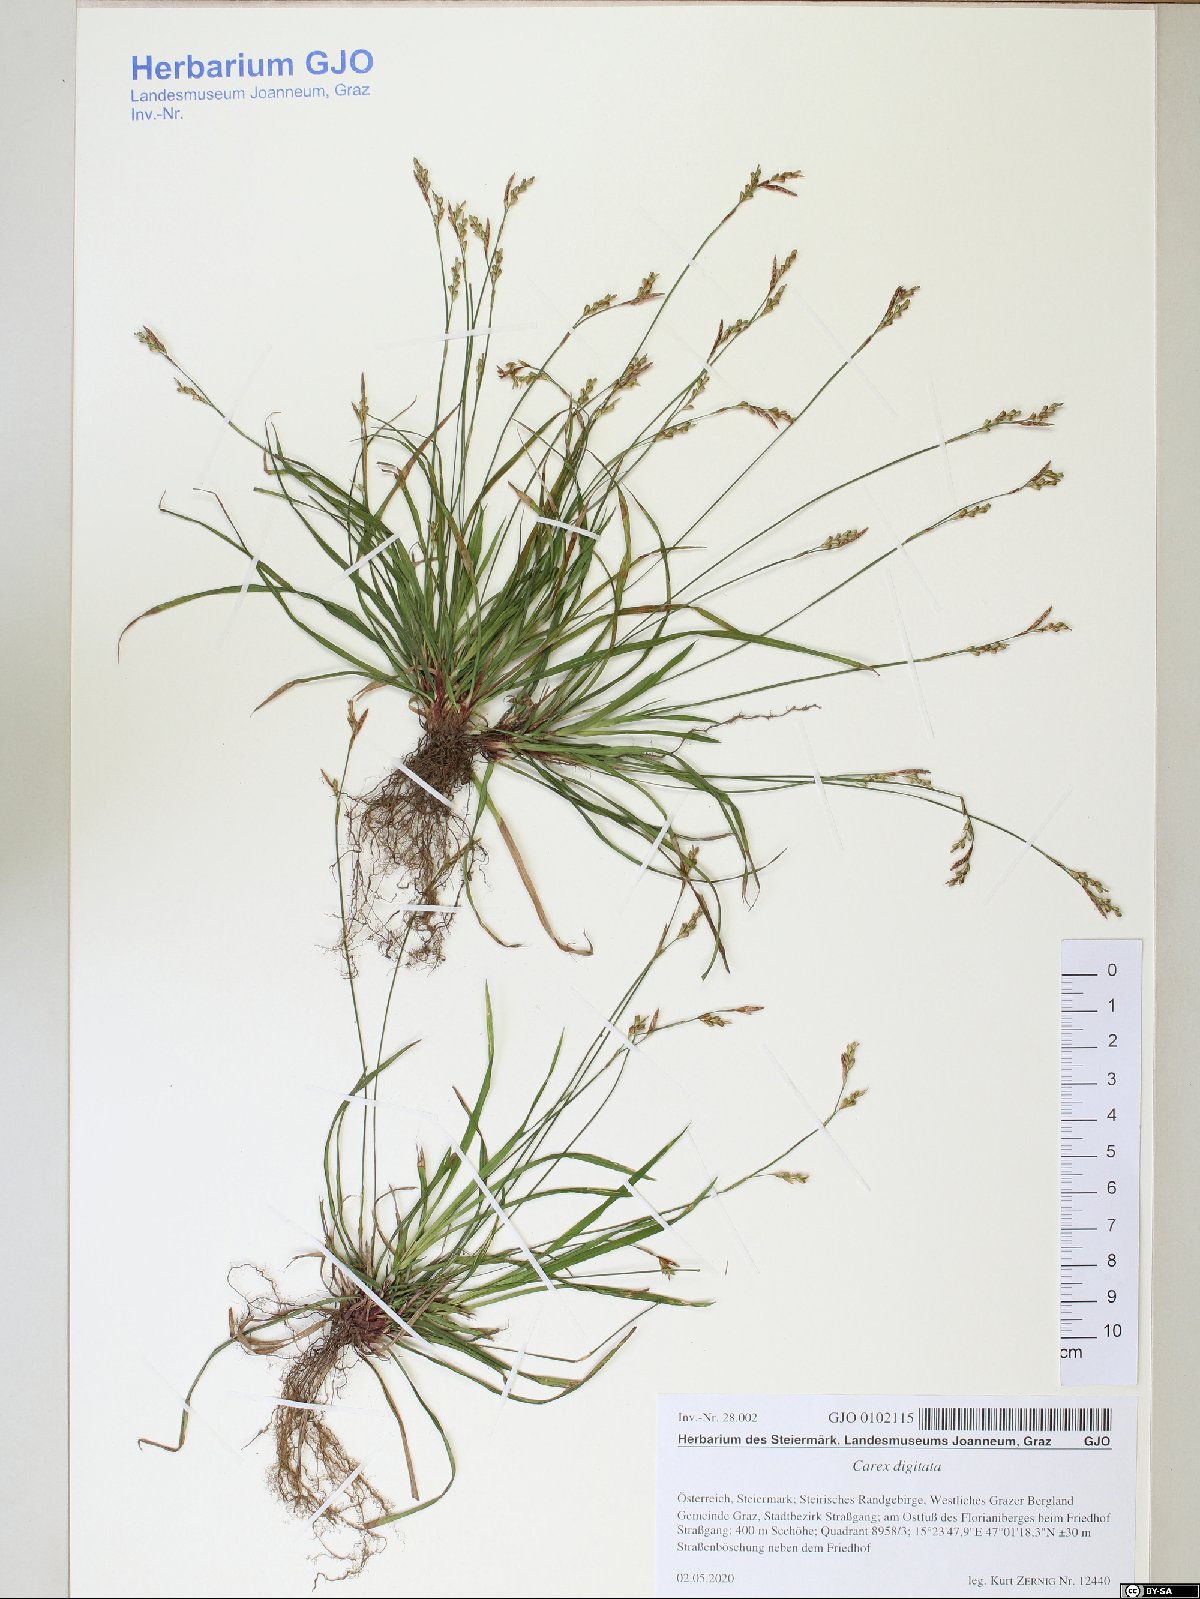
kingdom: Plantae
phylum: Tracheophyta
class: Liliopsida
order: Poales
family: Cyperaceae
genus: Carex
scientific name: Carex digitata
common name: Fingered sedge
